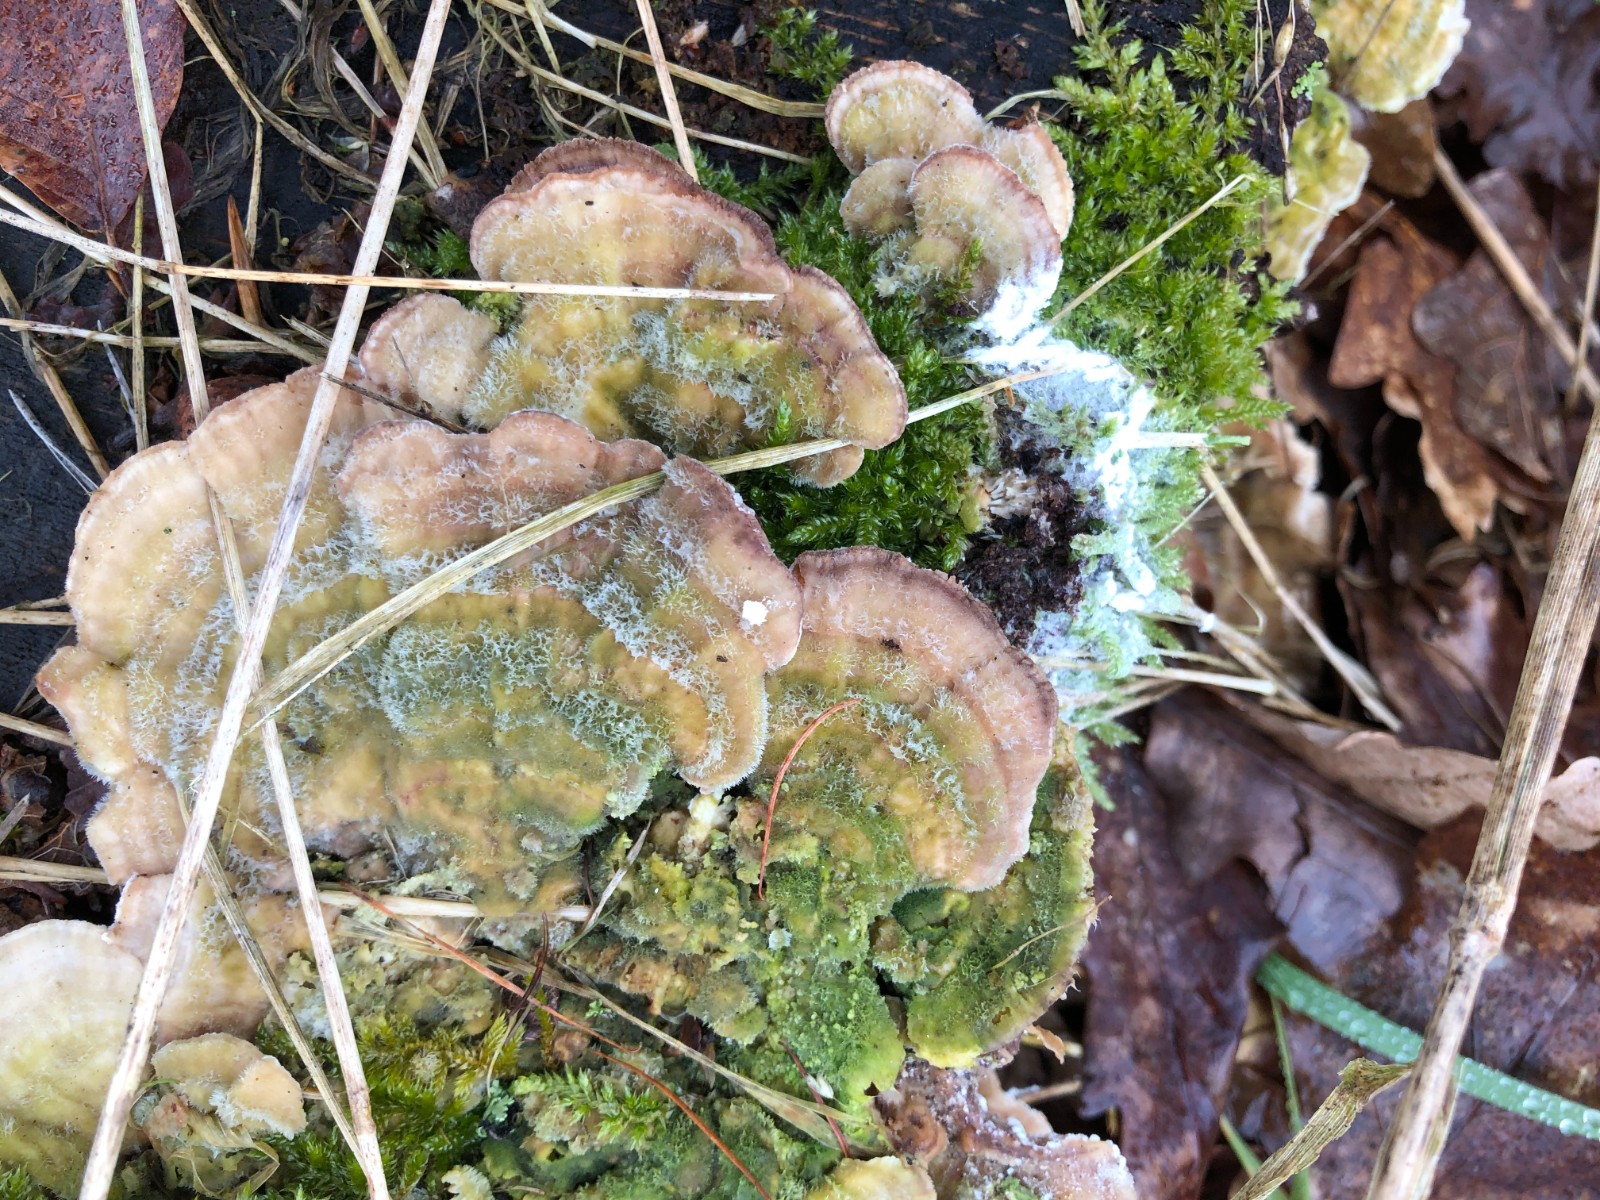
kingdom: Fungi
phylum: Ascomycota
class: Sordariomycetes
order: Hypocreales
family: Hypocreaceae
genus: Hypomyces
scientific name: Hypomyces aurantius
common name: almindelig snylteskorpe
